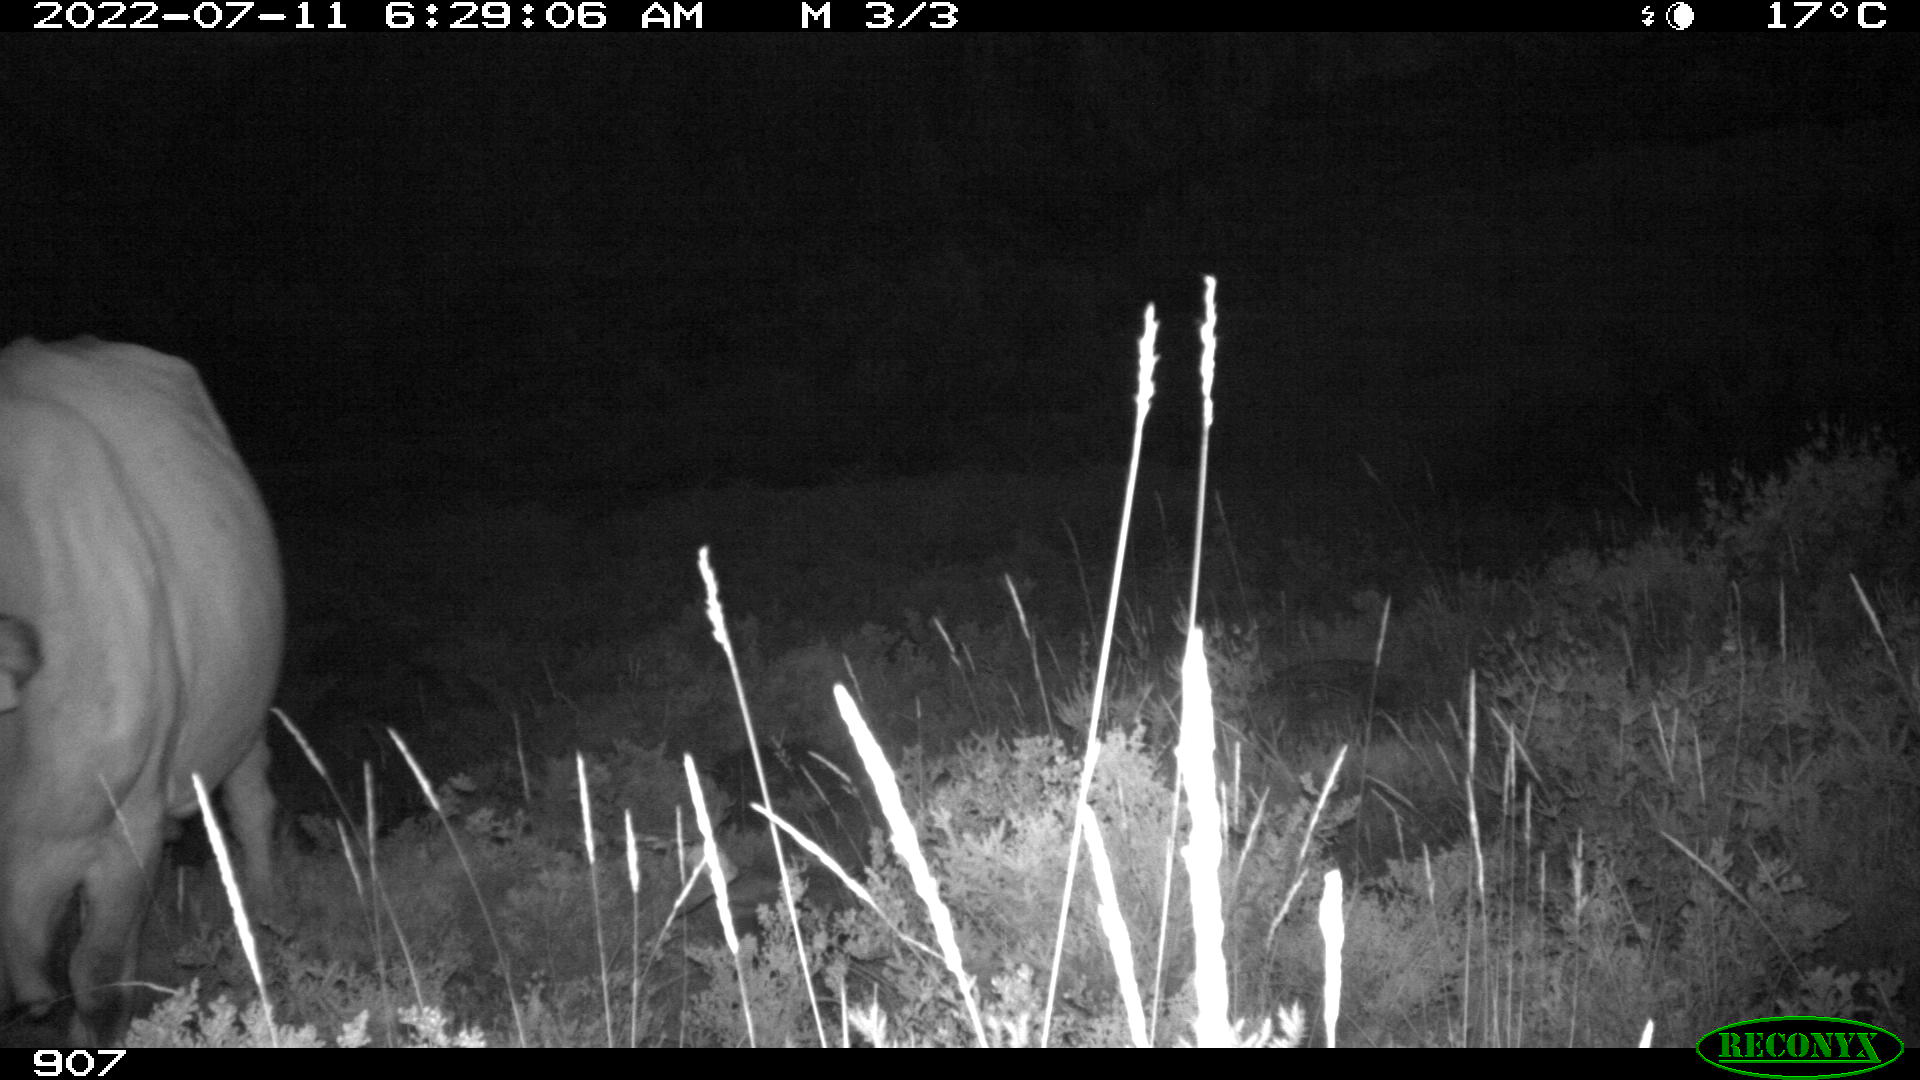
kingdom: Animalia
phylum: Chordata
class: Mammalia
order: Artiodactyla
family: Bovidae
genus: Bos
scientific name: Bos taurus
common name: Domesticated cattle
